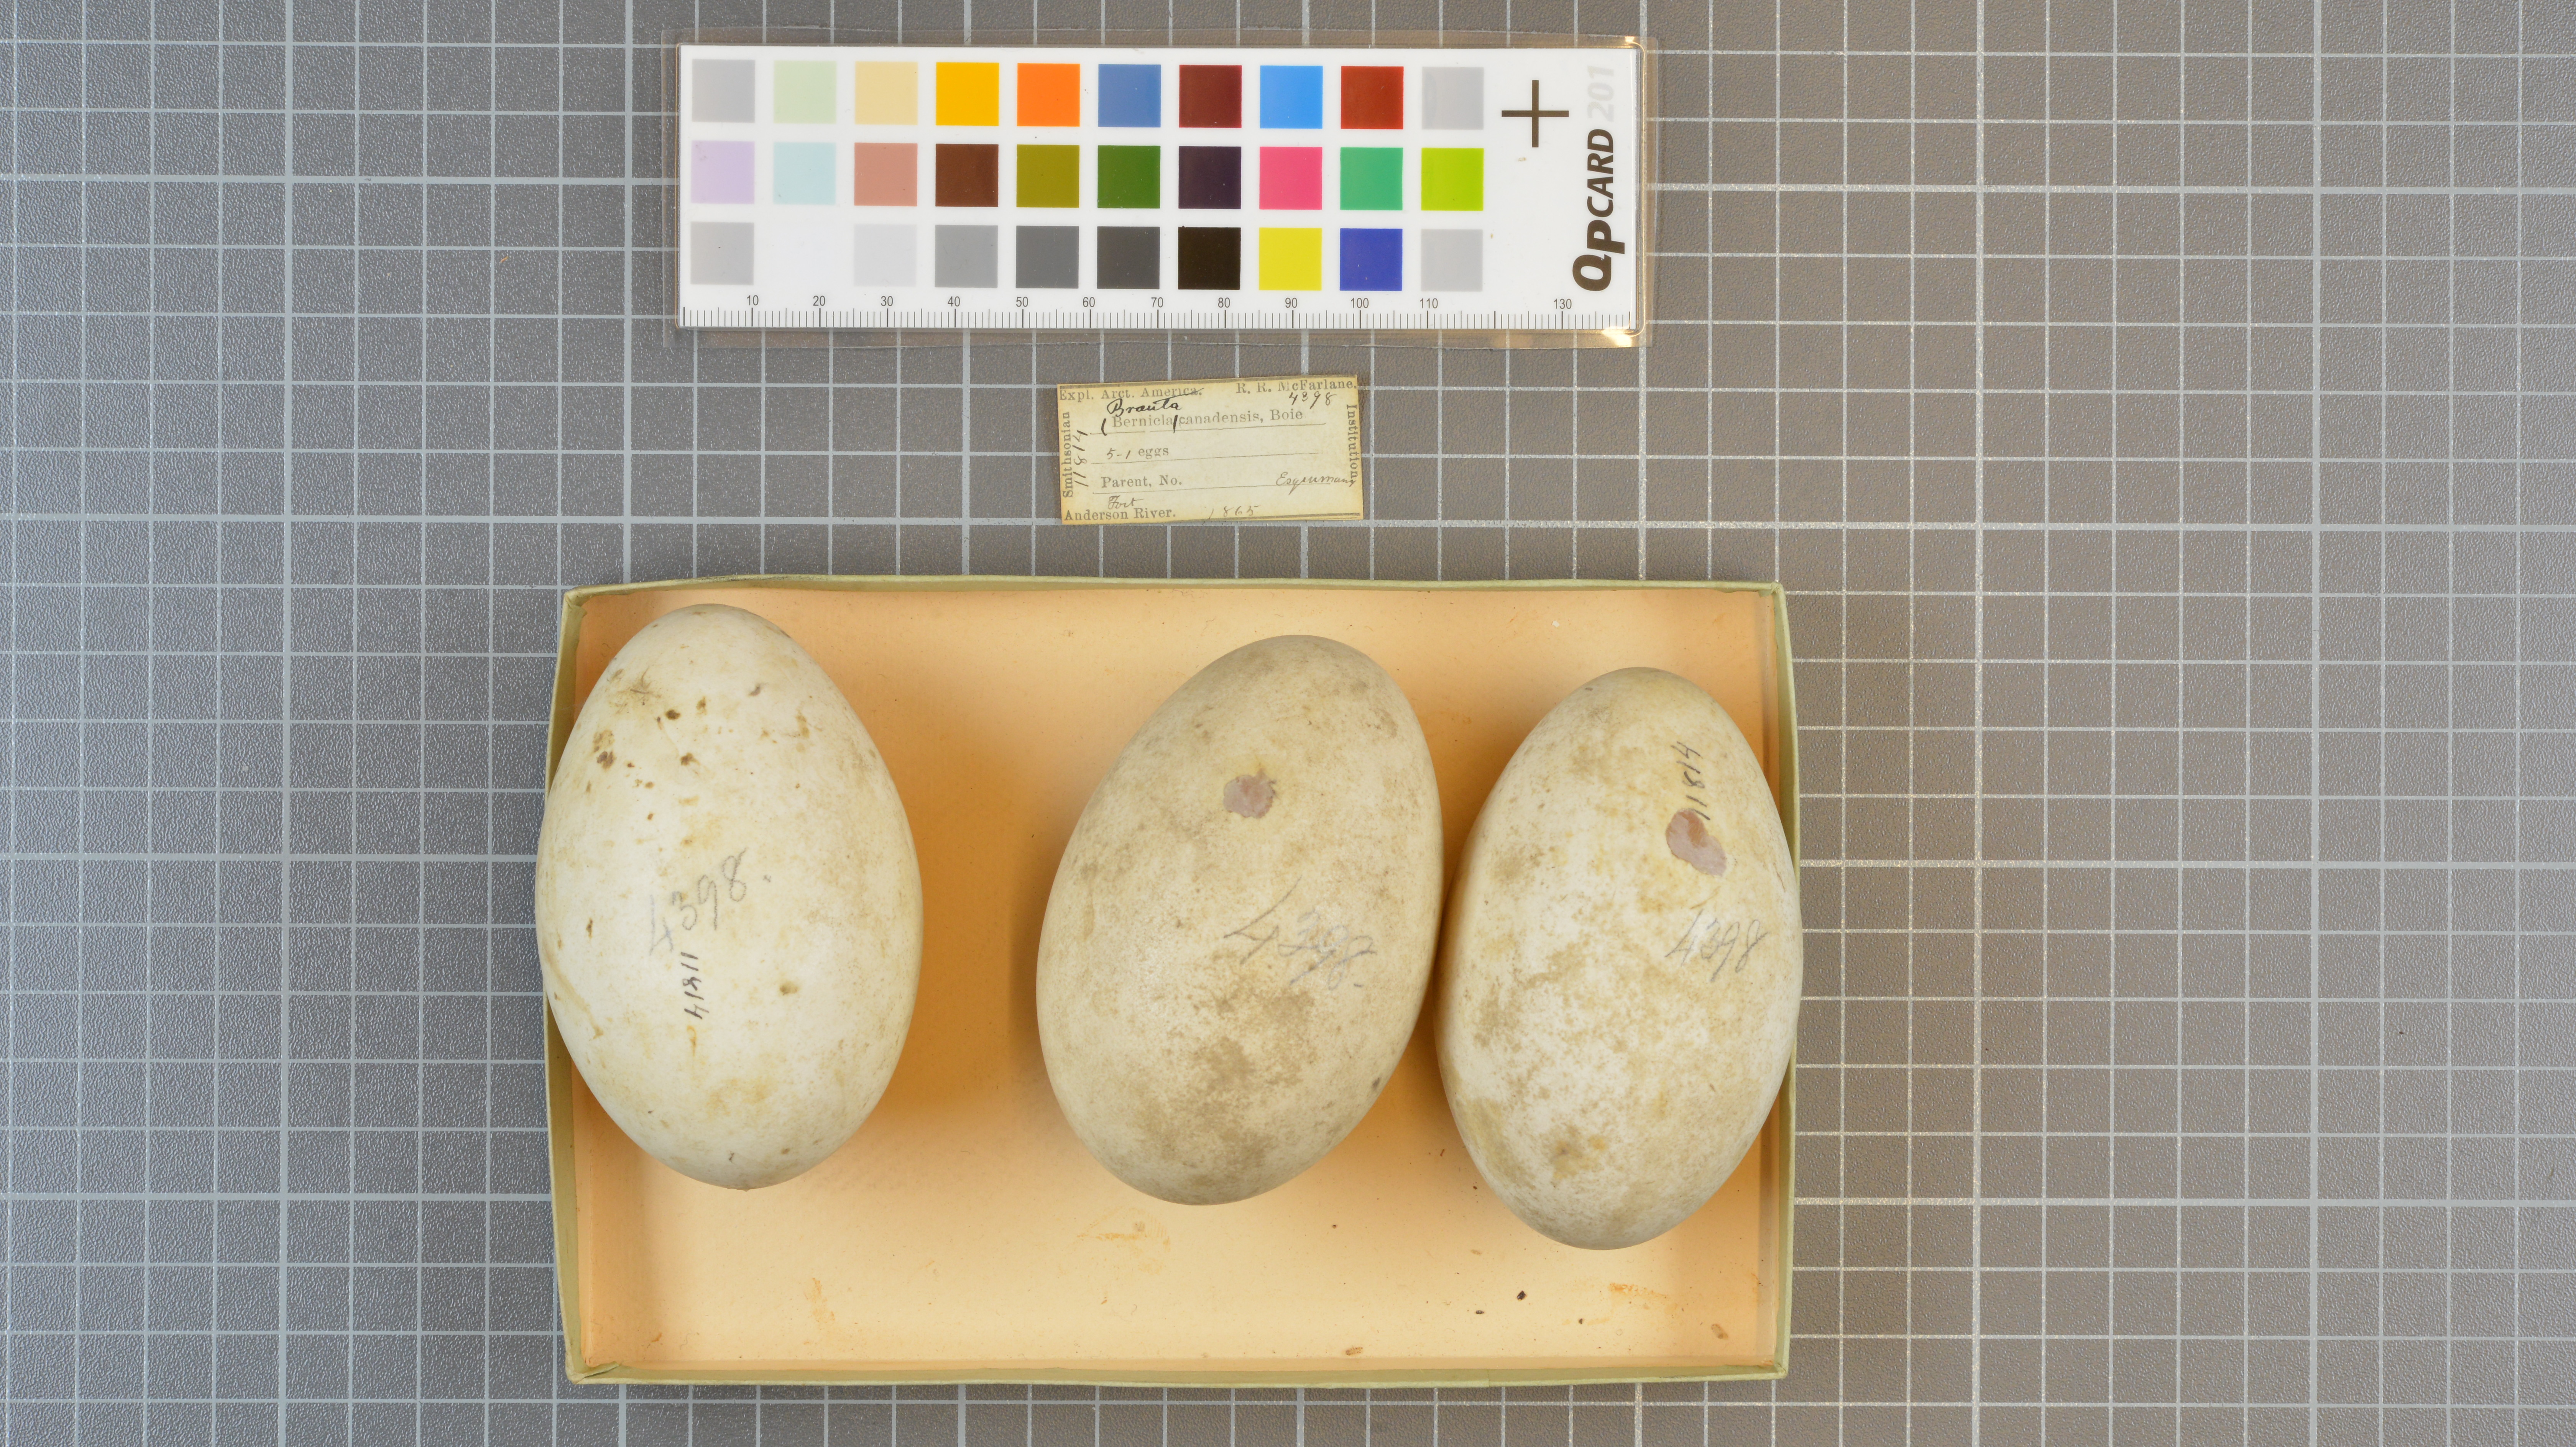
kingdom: Animalia
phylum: Chordata
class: Aves
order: Anseriformes
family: Anatidae
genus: Branta
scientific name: Branta canadensis
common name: Canada goose
